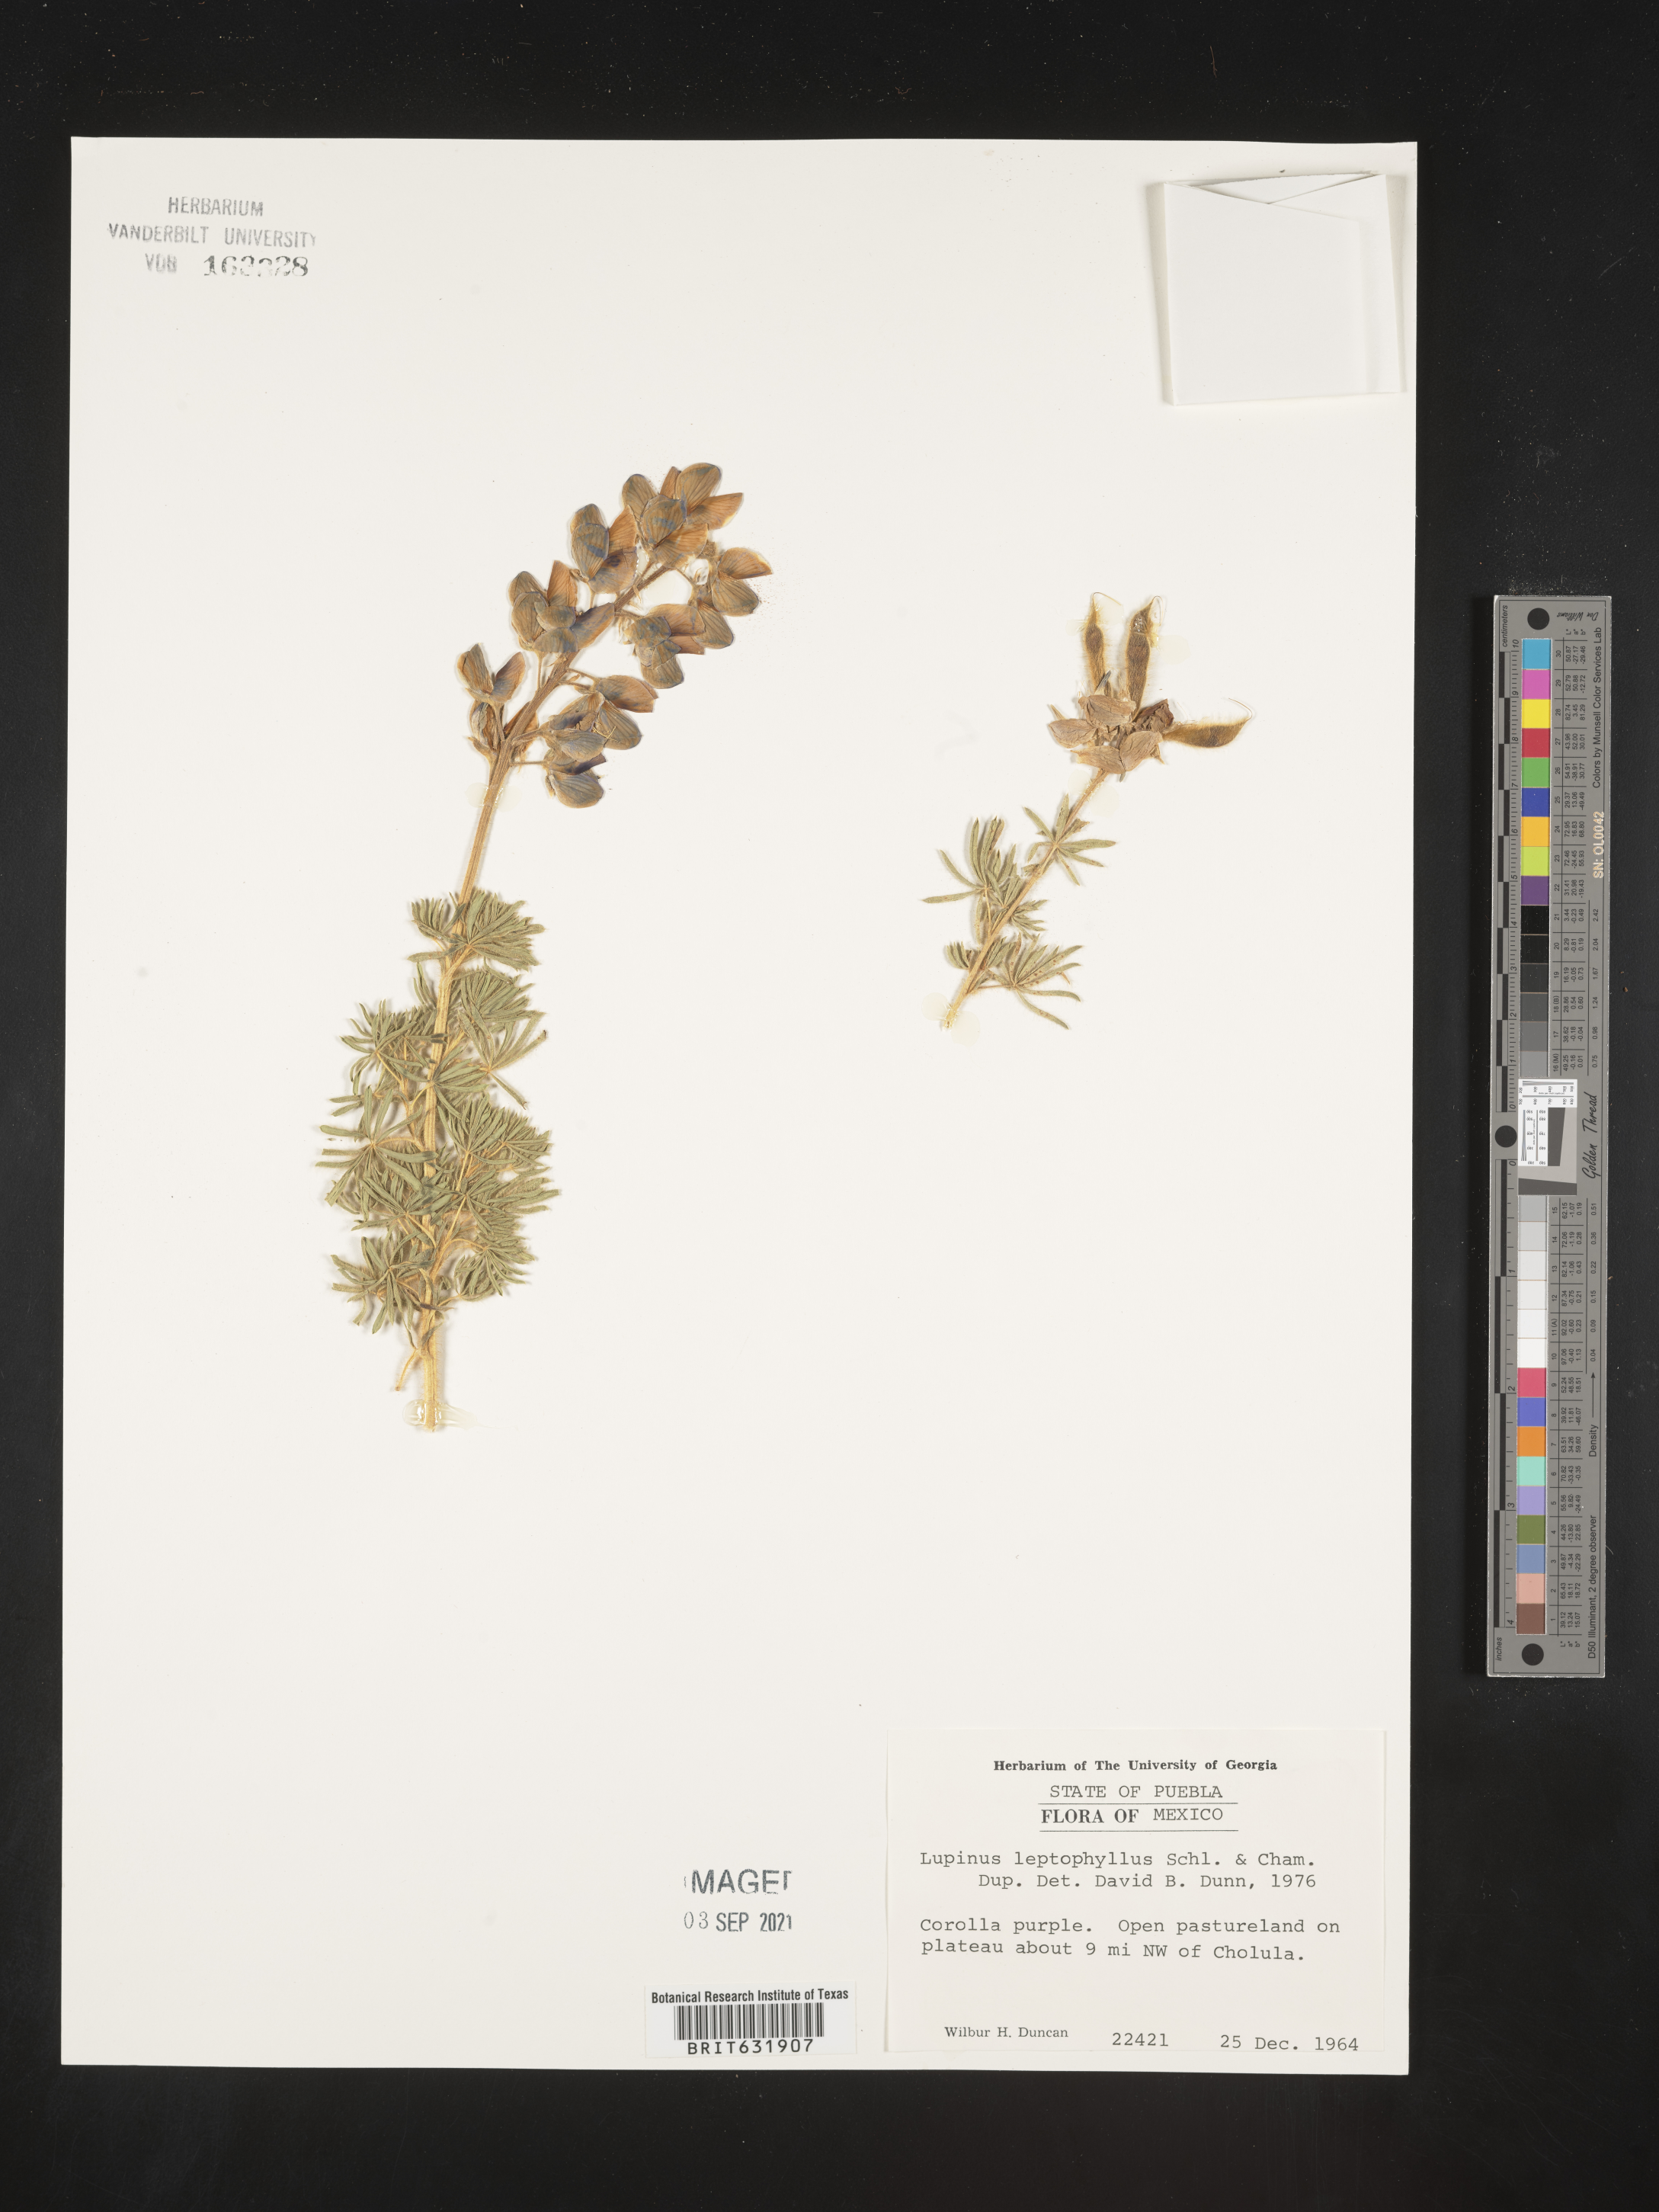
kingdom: Plantae
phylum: Tracheophyta
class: Magnoliopsida
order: Fabales
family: Fabaceae
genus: Lupinus
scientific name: Lupinus
